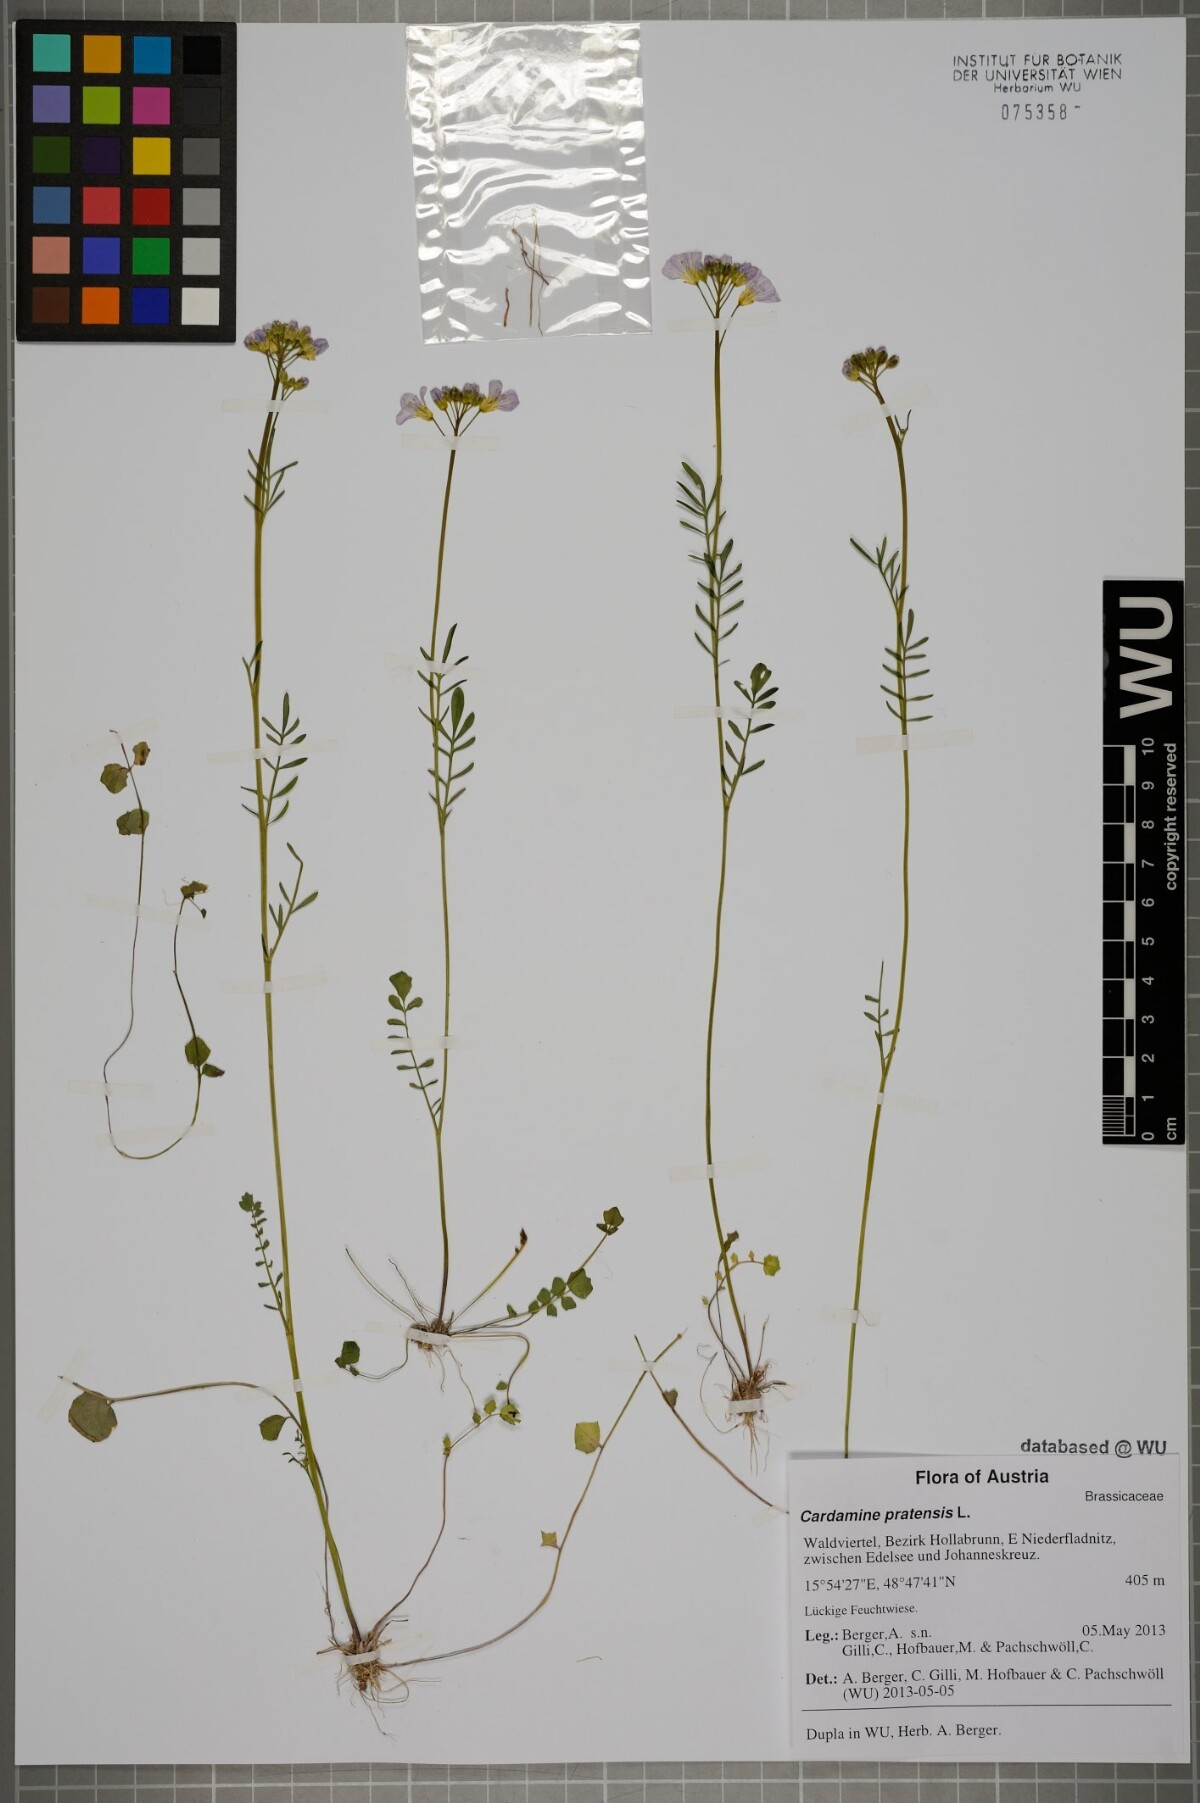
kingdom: Plantae
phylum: Tracheophyta
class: Magnoliopsida
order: Brassicales
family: Brassicaceae
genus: Cardamine
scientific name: Cardamine pratensis
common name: Cuckoo flower
